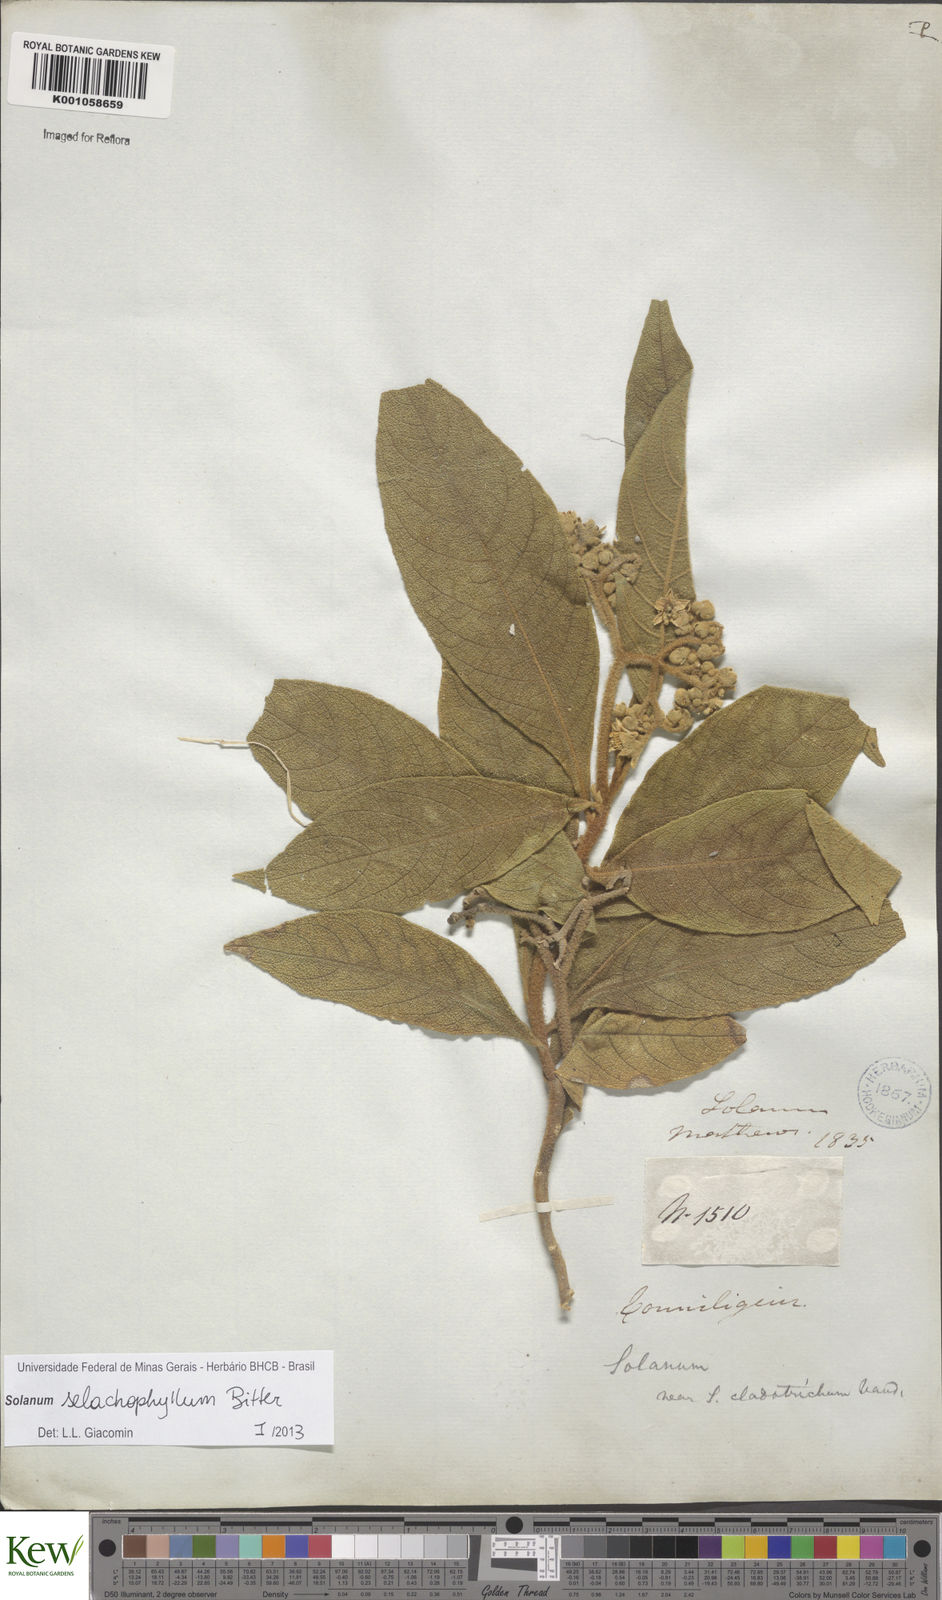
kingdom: Plantae
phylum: Tracheophyta
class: Magnoliopsida
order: Solanales
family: Solanaceae
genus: Solanum
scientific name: Solanum
